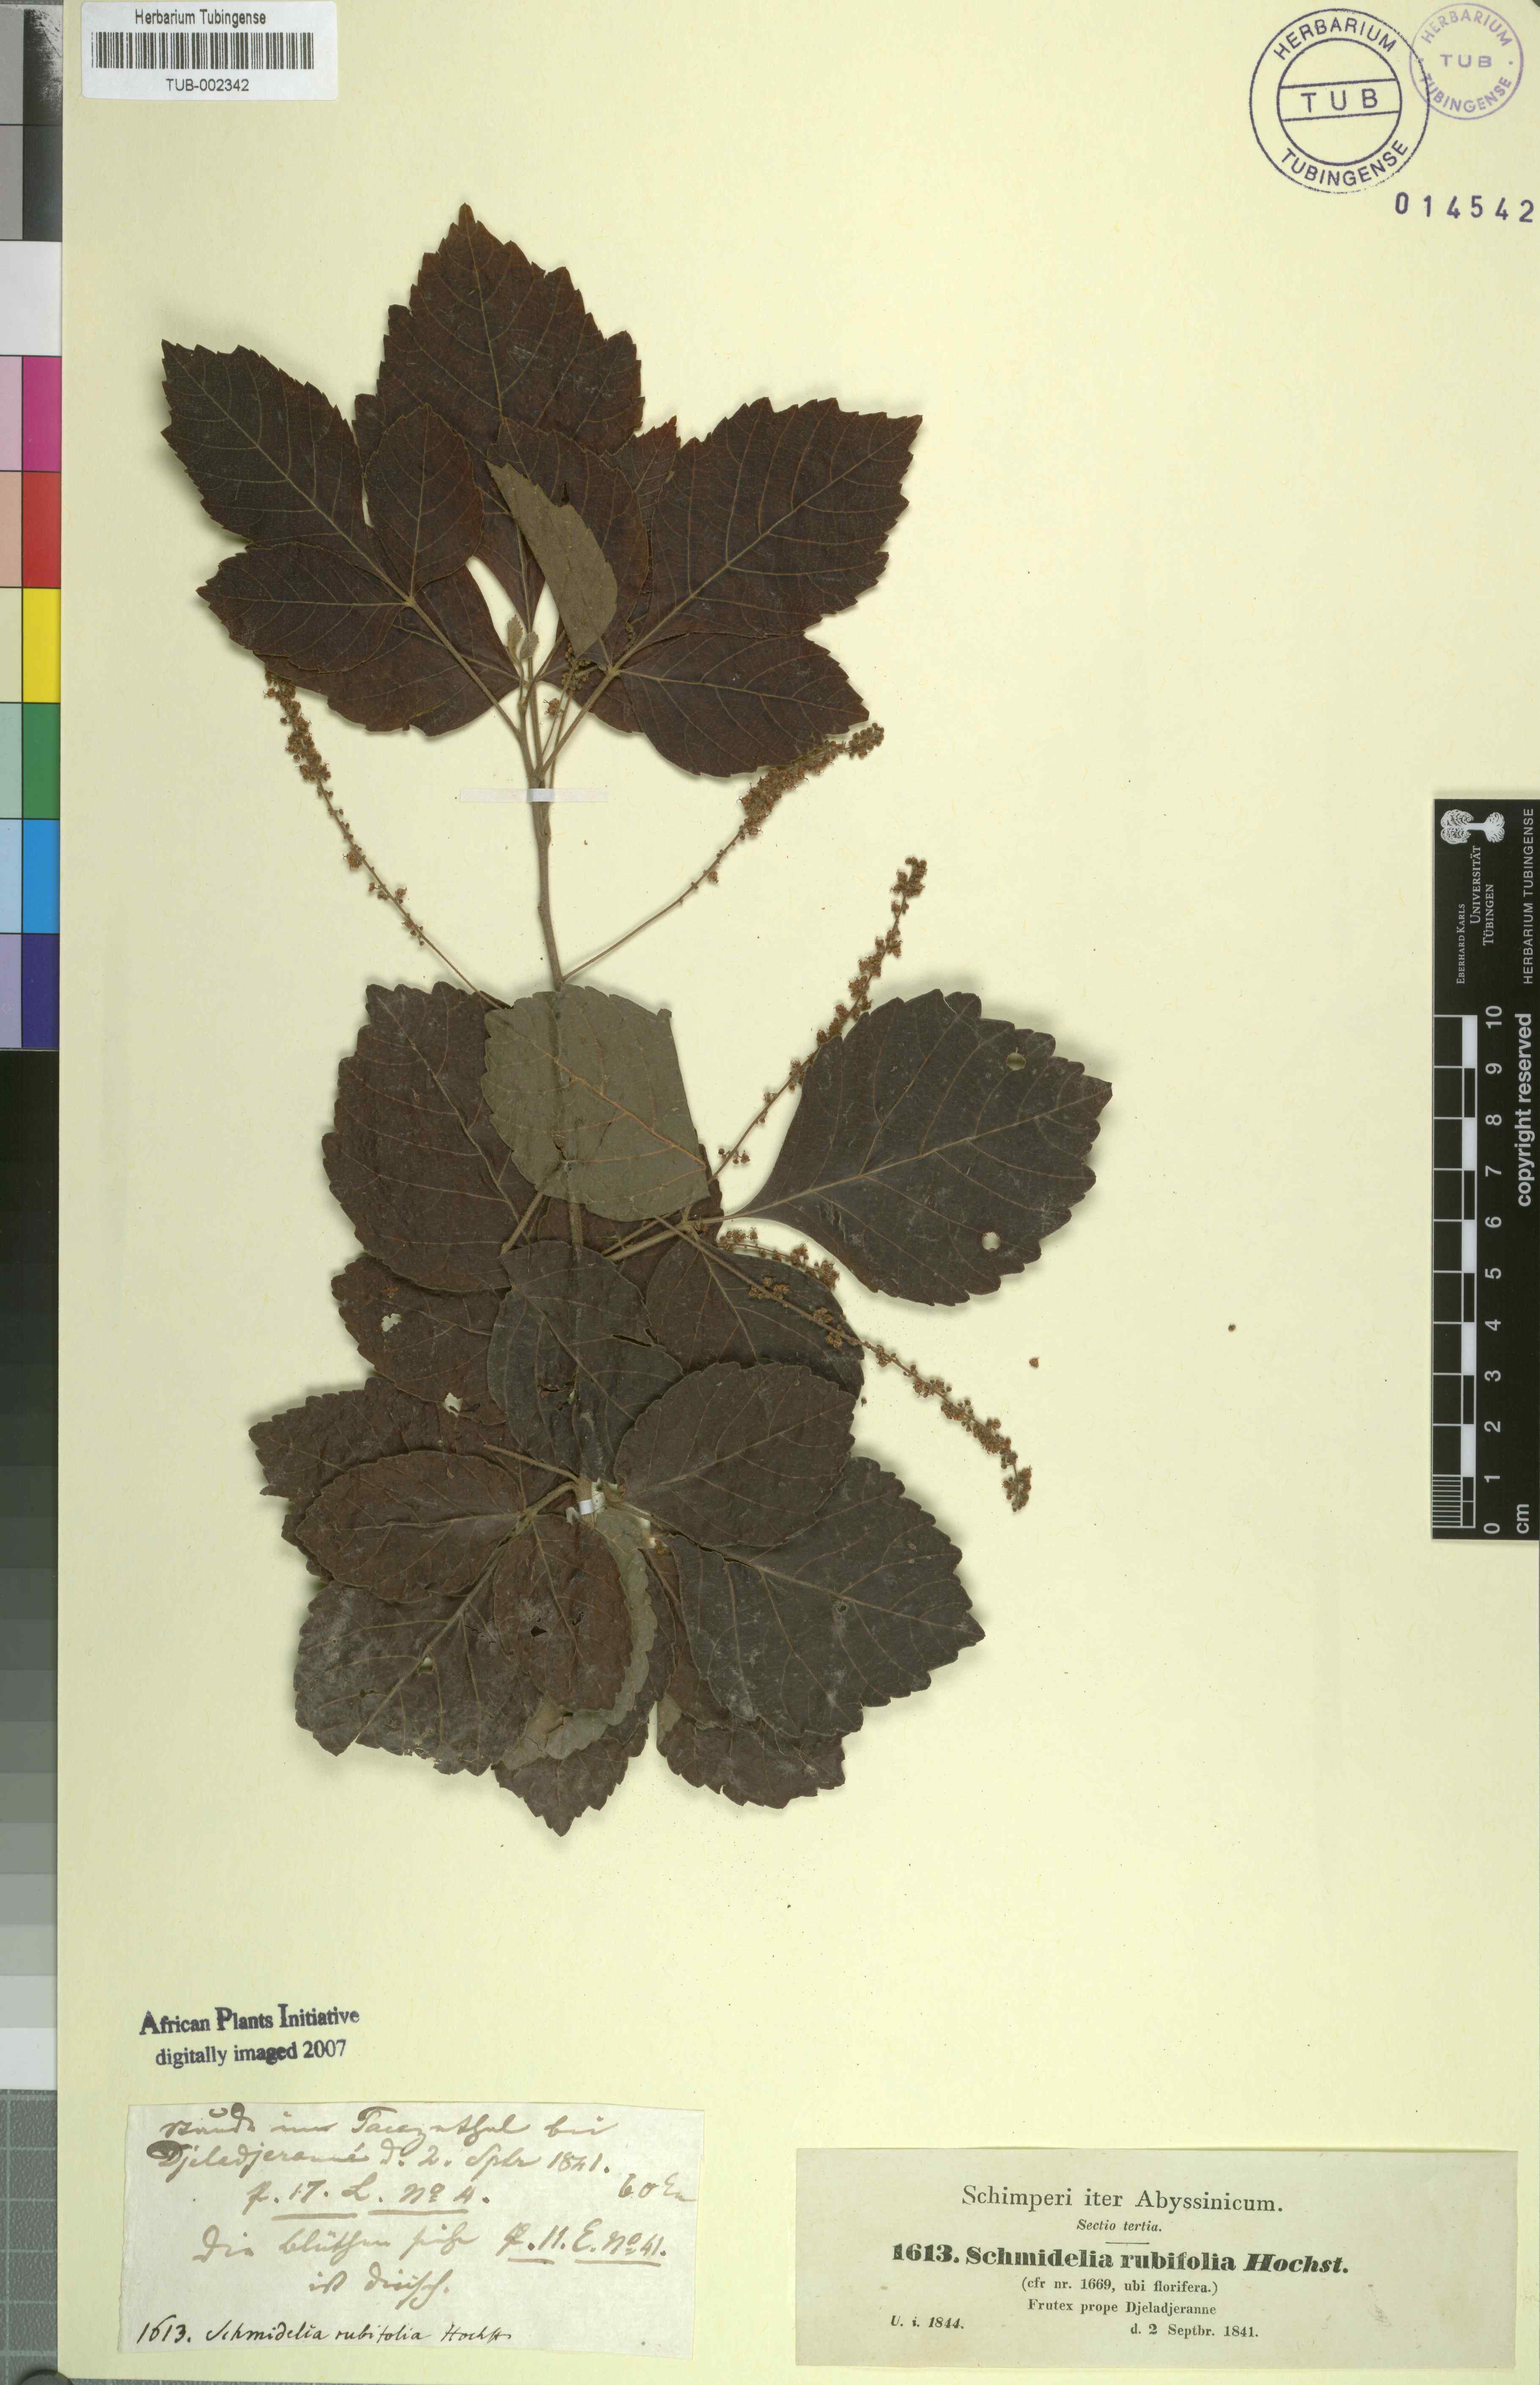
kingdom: Plantae
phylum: Tracheophyta
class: Magnoliopsida
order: Sapindales
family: Sapindaceae
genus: Allophylus
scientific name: Allophylus rubifolius
